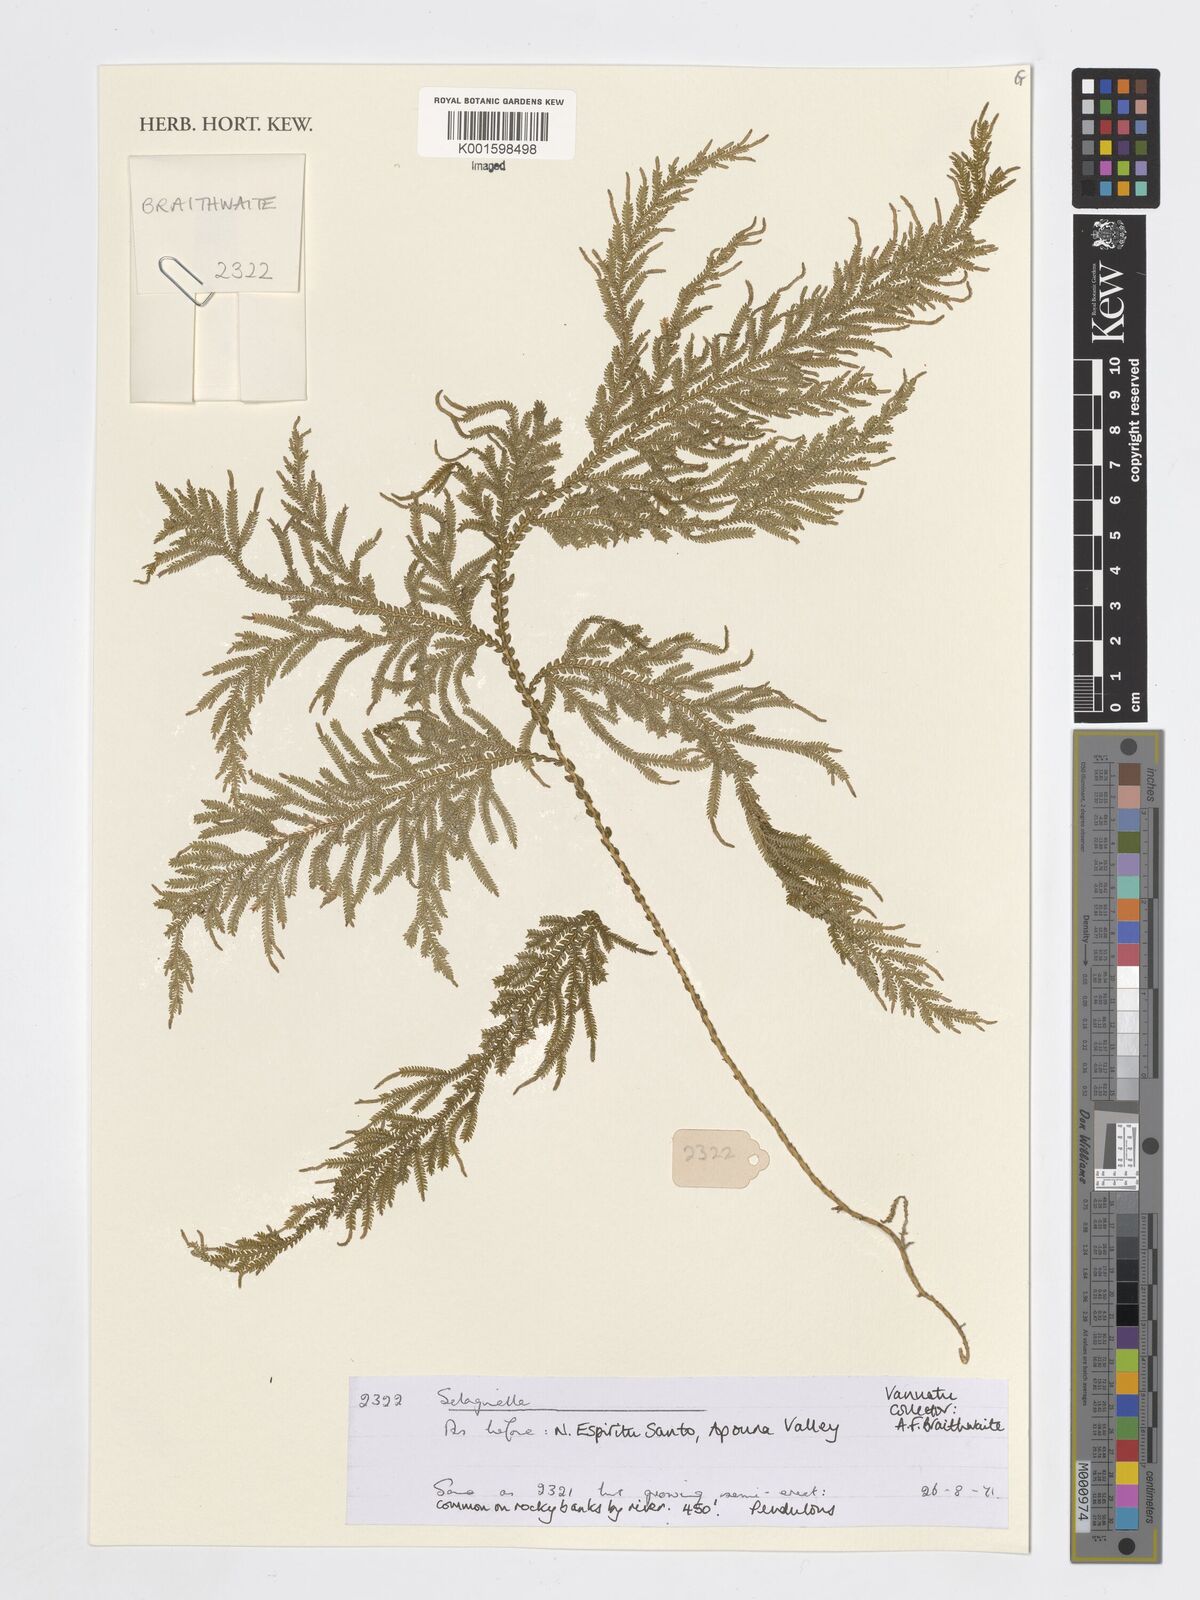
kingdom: Plantae
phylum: Tracheophyta
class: Lycopodiopsida
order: Selaginellales
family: Selaginellaceae
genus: Selaginella
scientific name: Selaginella
